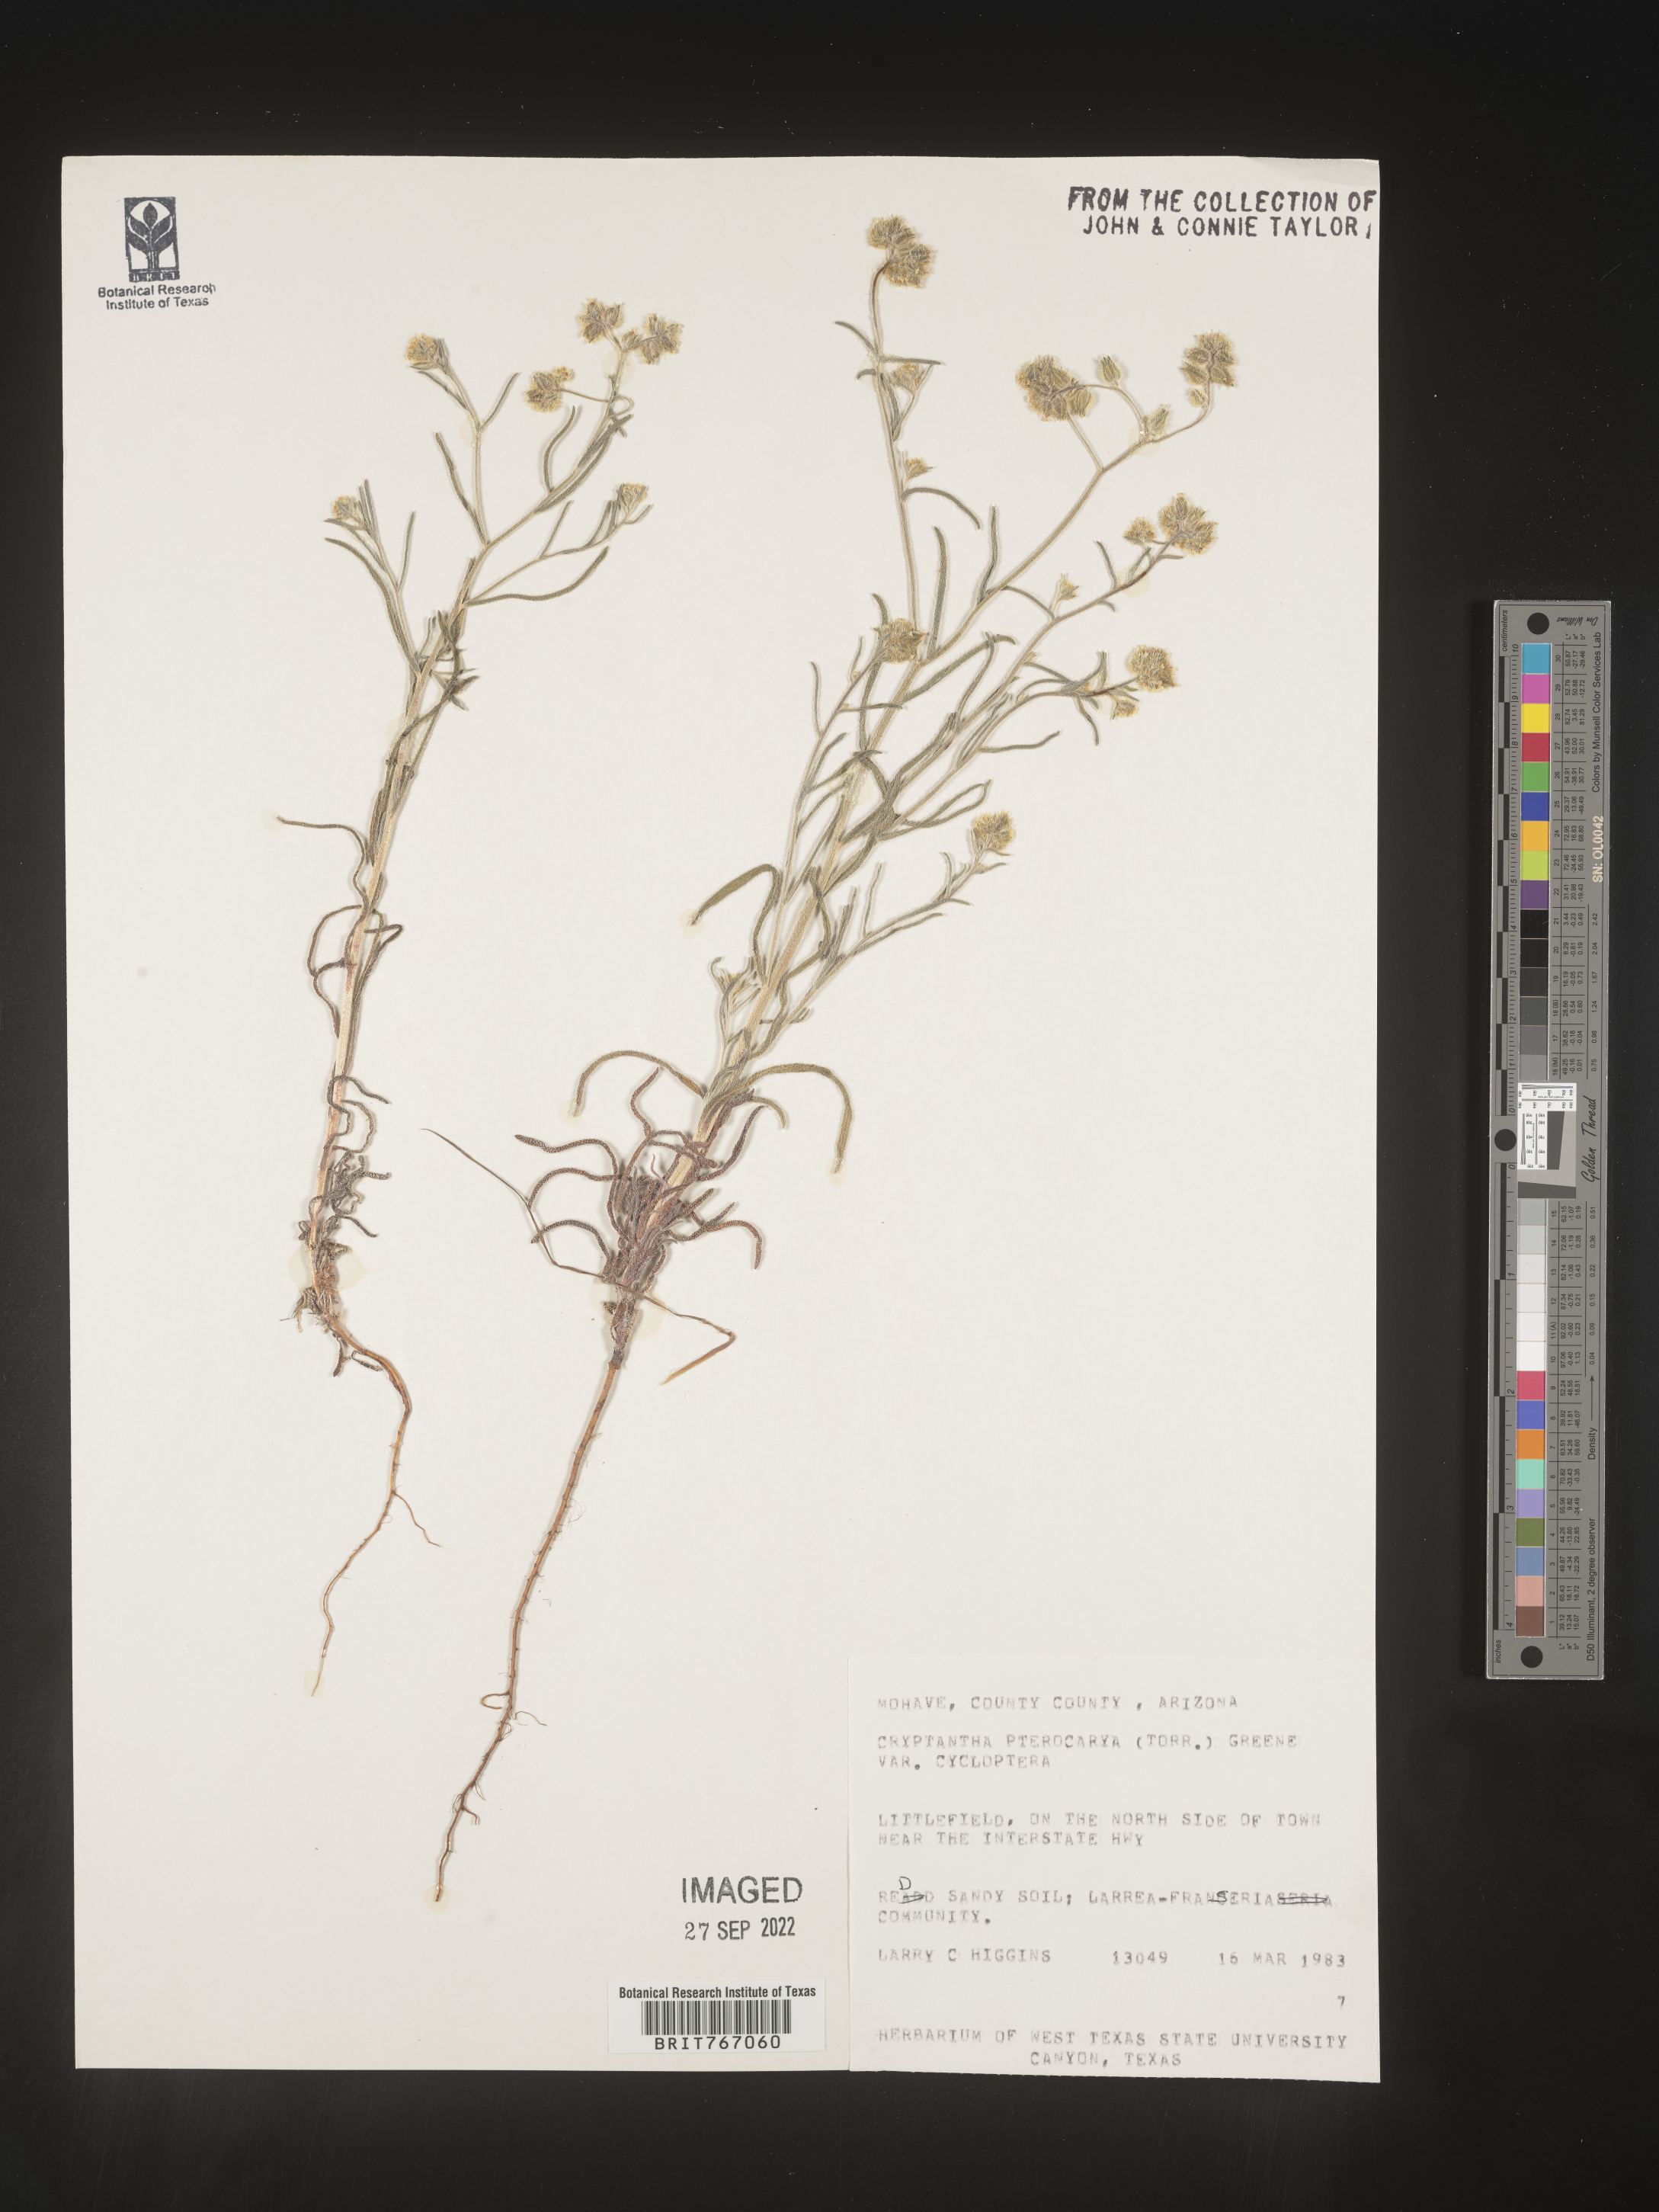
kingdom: Plantae
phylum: Tracheophyta
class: Magnoliopsida
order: Boraginales
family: Boraginaceae
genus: Cryptantha
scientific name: Cryptantha pterocarya
